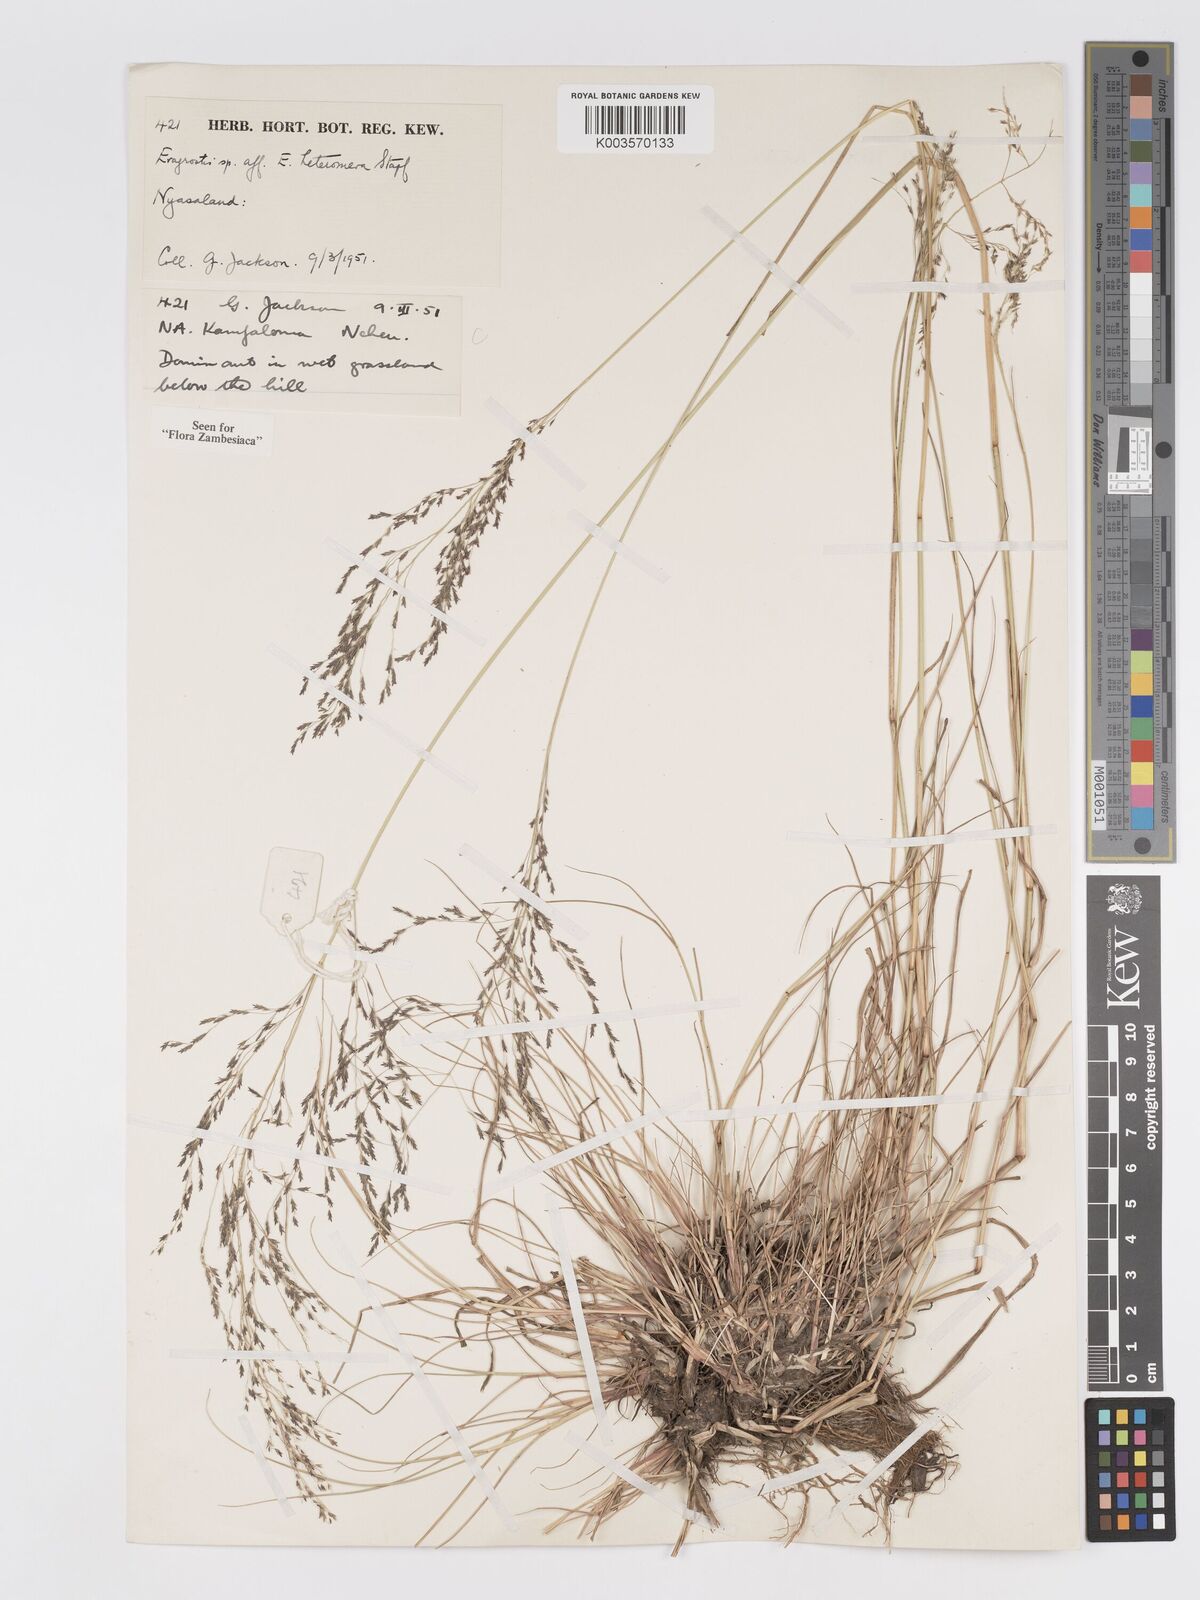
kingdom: Plantae
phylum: Tracheophyta
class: Liliopsida
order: Poales
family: Poaceae
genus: Eragrostis
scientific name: Eragrostis heteromera
